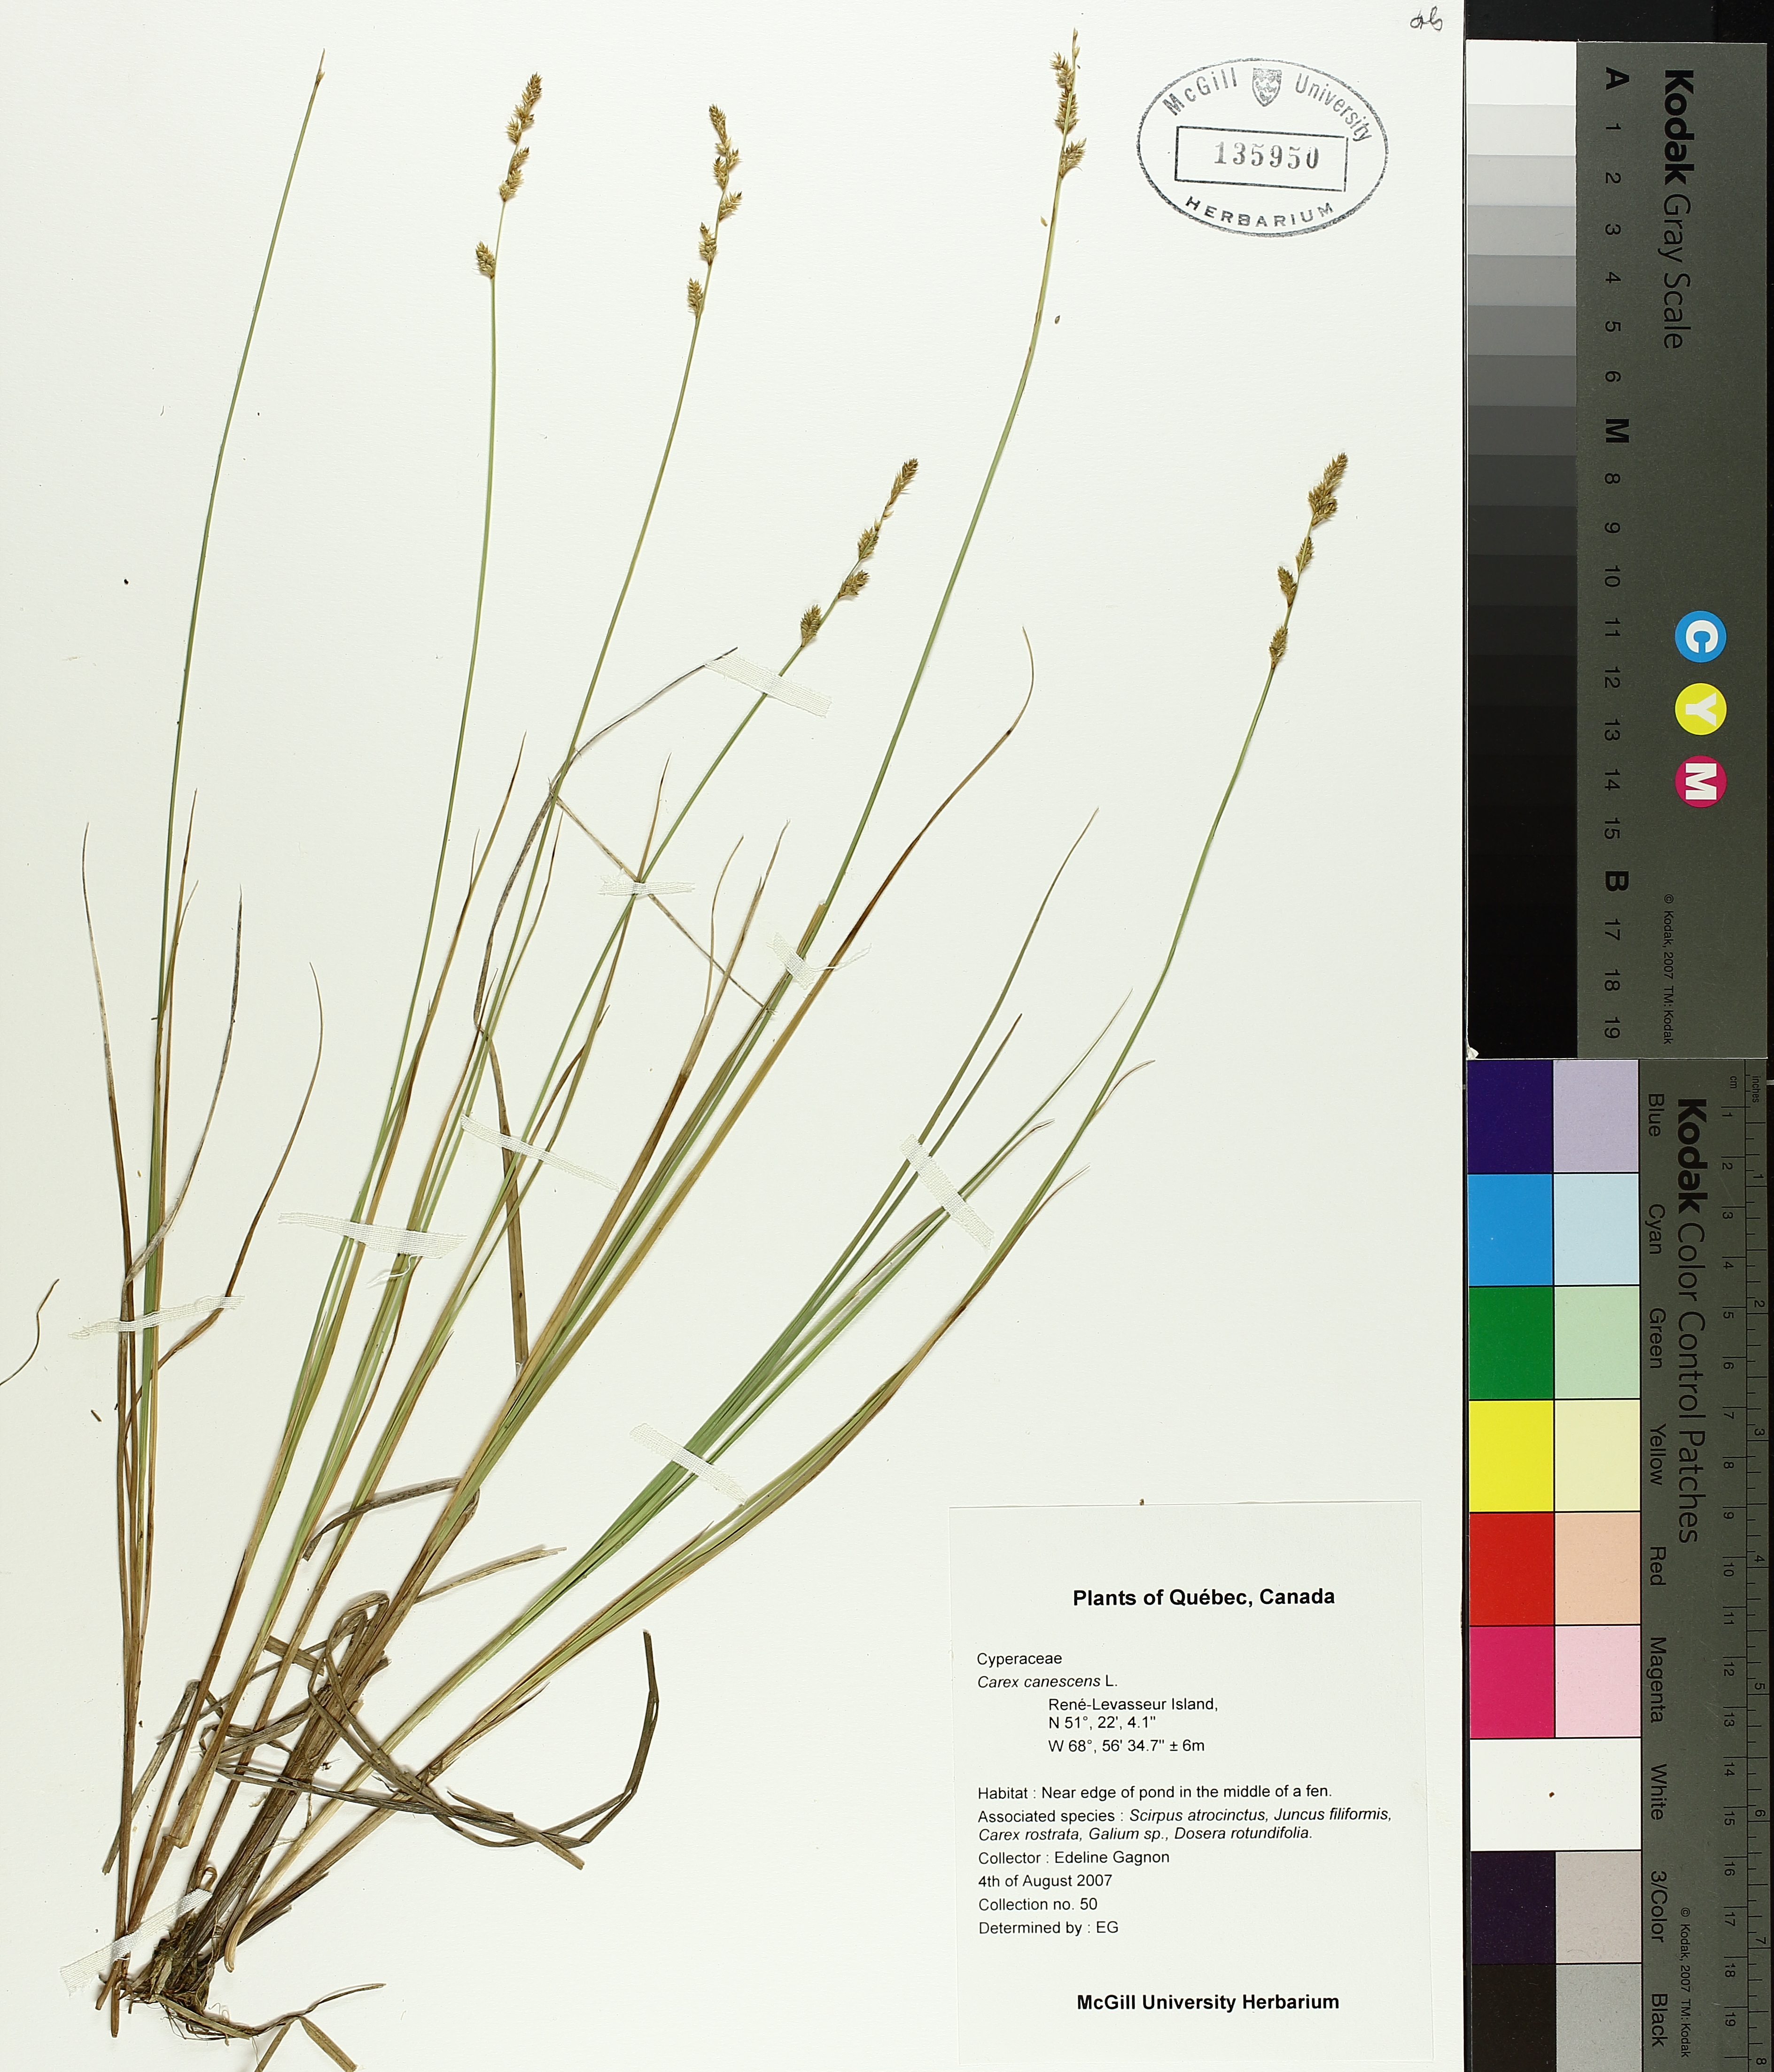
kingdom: Plantae
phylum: Tracheophyta
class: Liliopsida
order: Poales
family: Cyperaceae
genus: Carex
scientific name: Carex canescens
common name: White sedge
